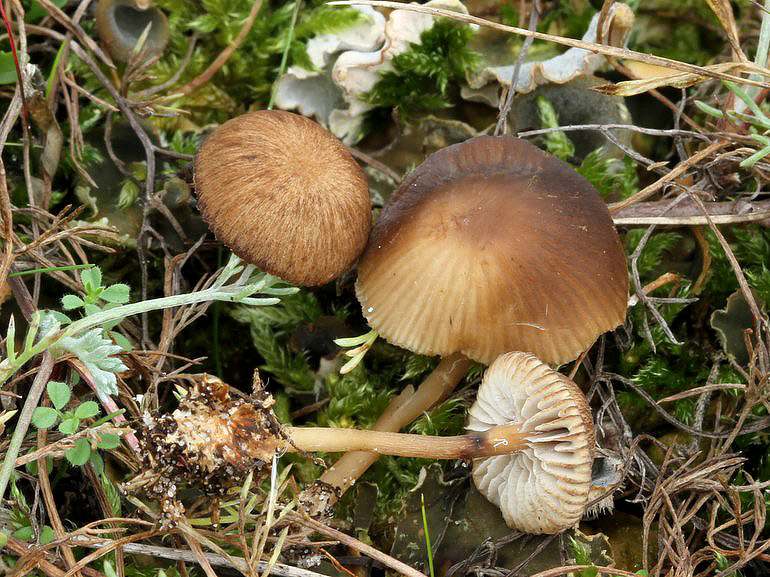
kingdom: Fungi
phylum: Basidiomycota
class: Agaricomycetes
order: Agaricales
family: Tricholomataceae
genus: Gamundia
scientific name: Gamundia xerophila
